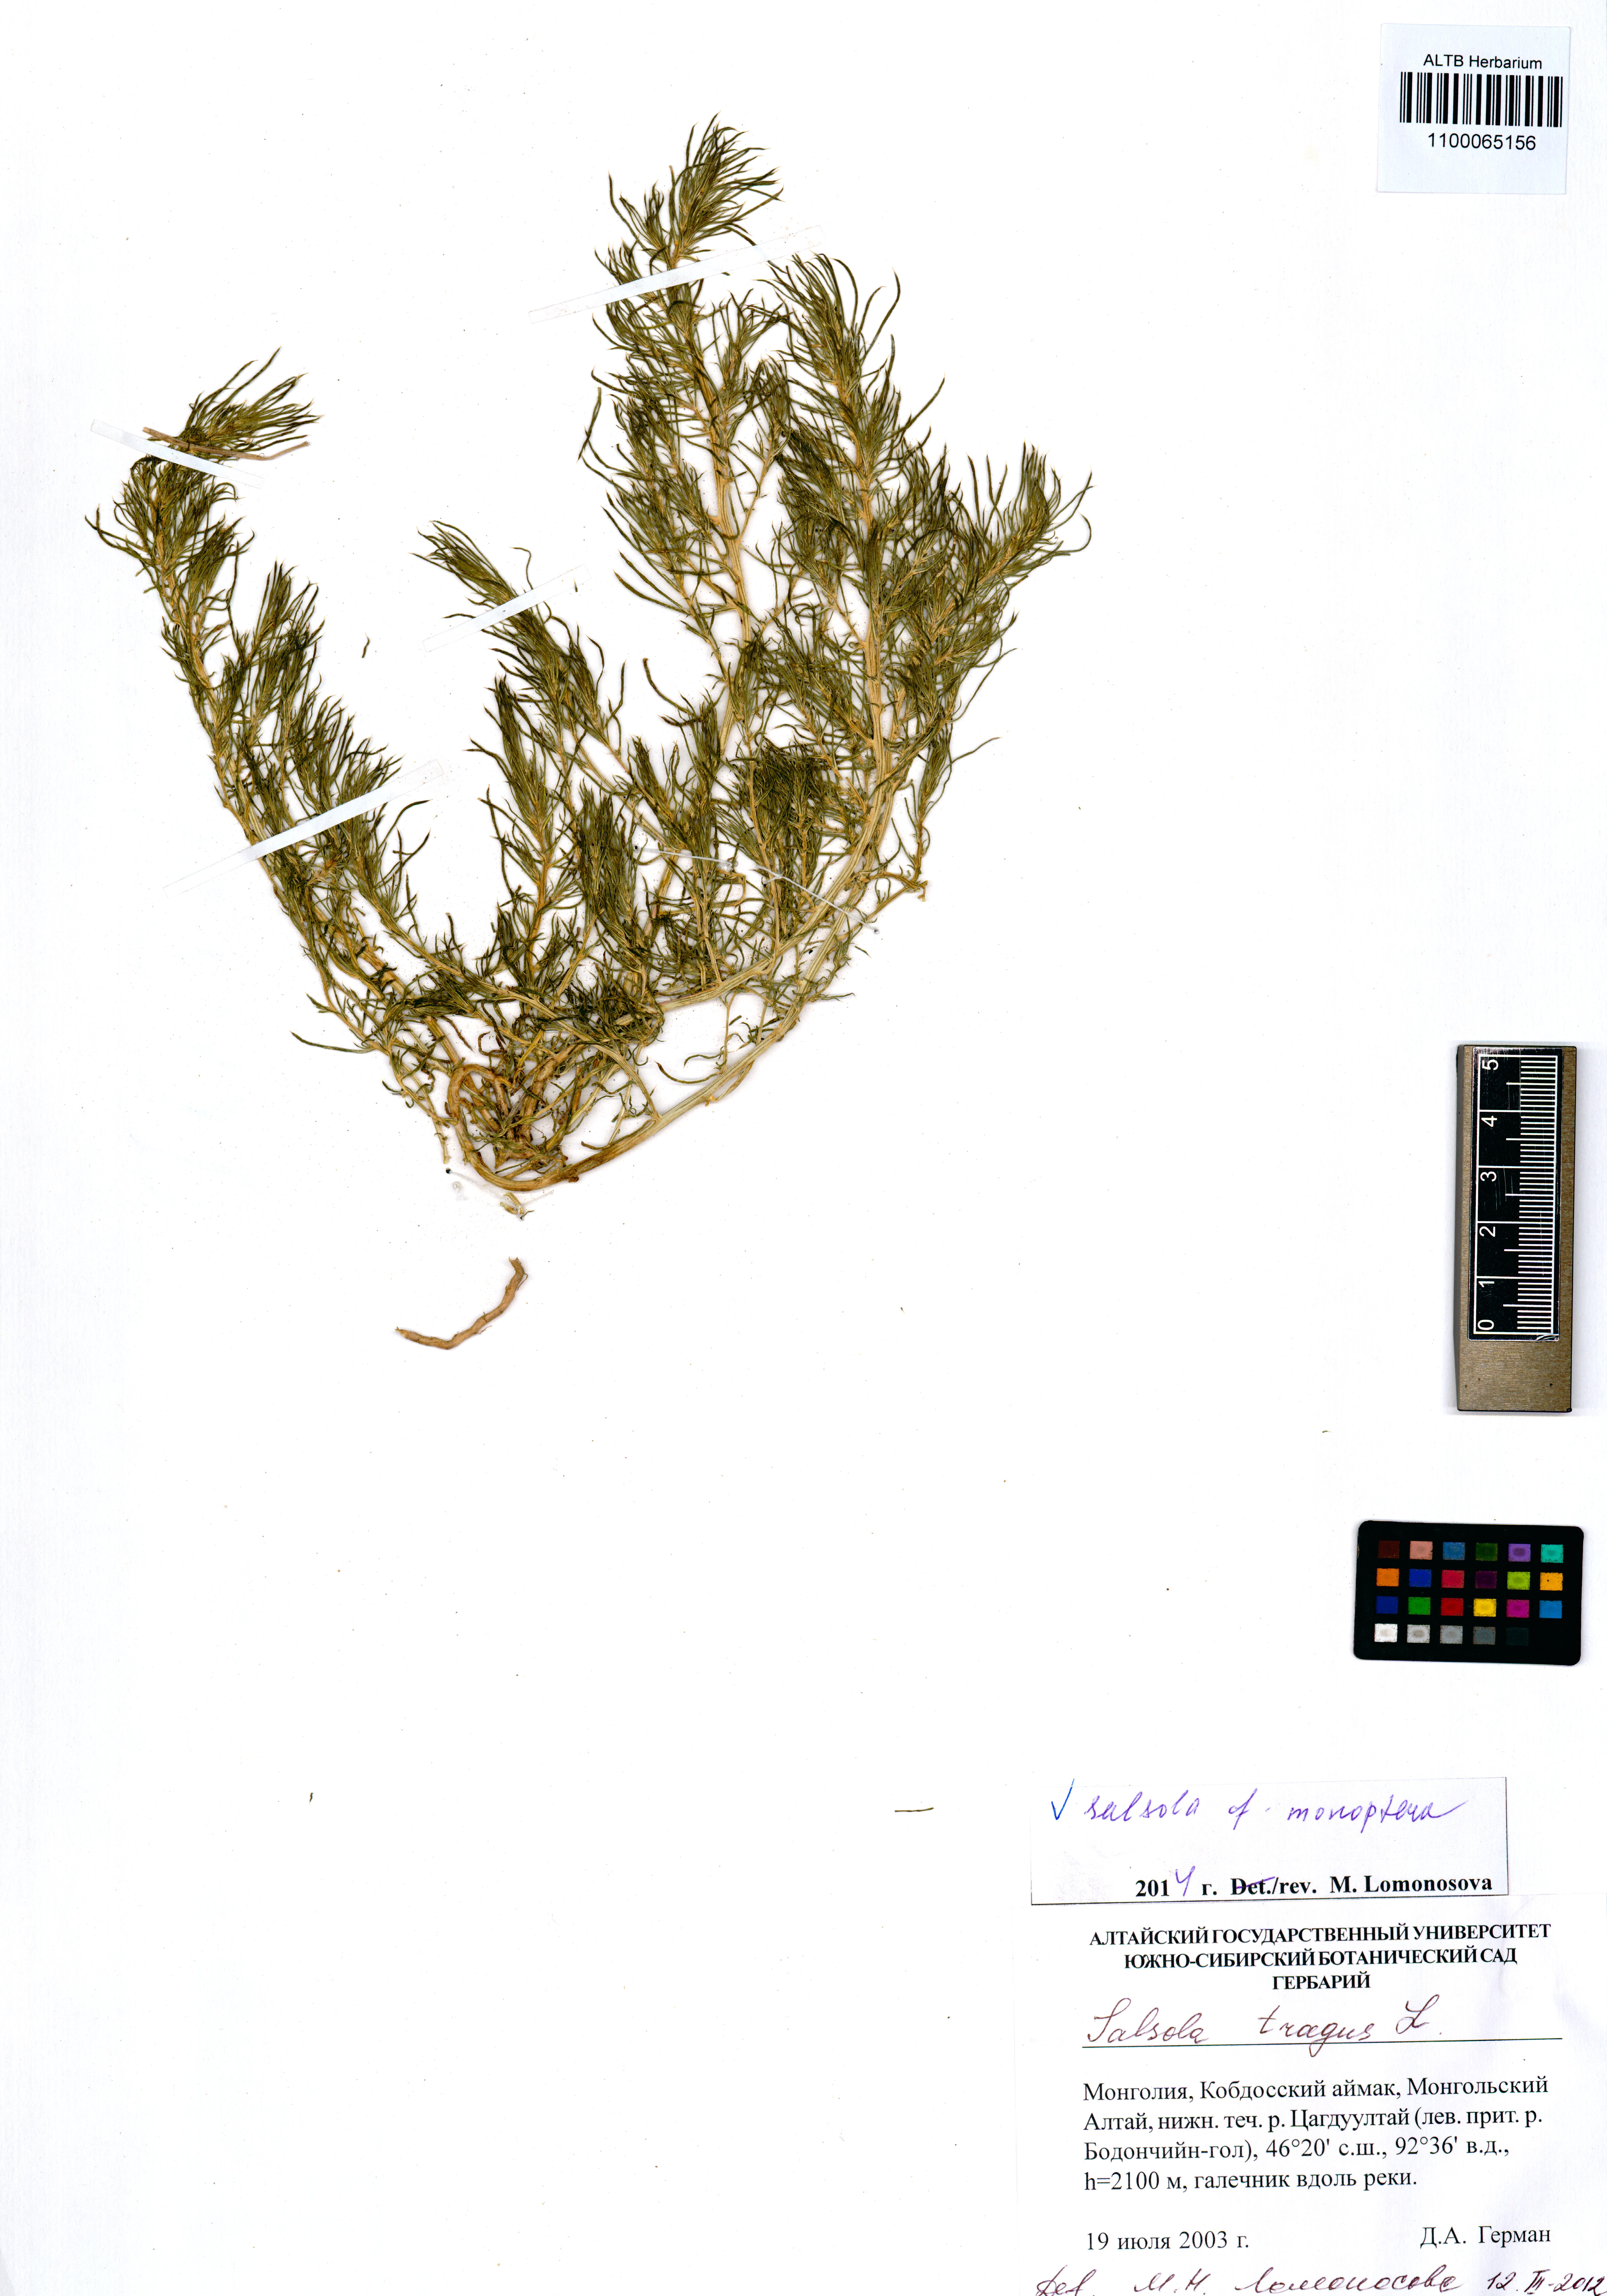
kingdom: Plantae
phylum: Tracheophyta
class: Magnoliopsida
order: Caryophyllales
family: Amaranthaceae
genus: Salsola
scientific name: Salsola monoptera
